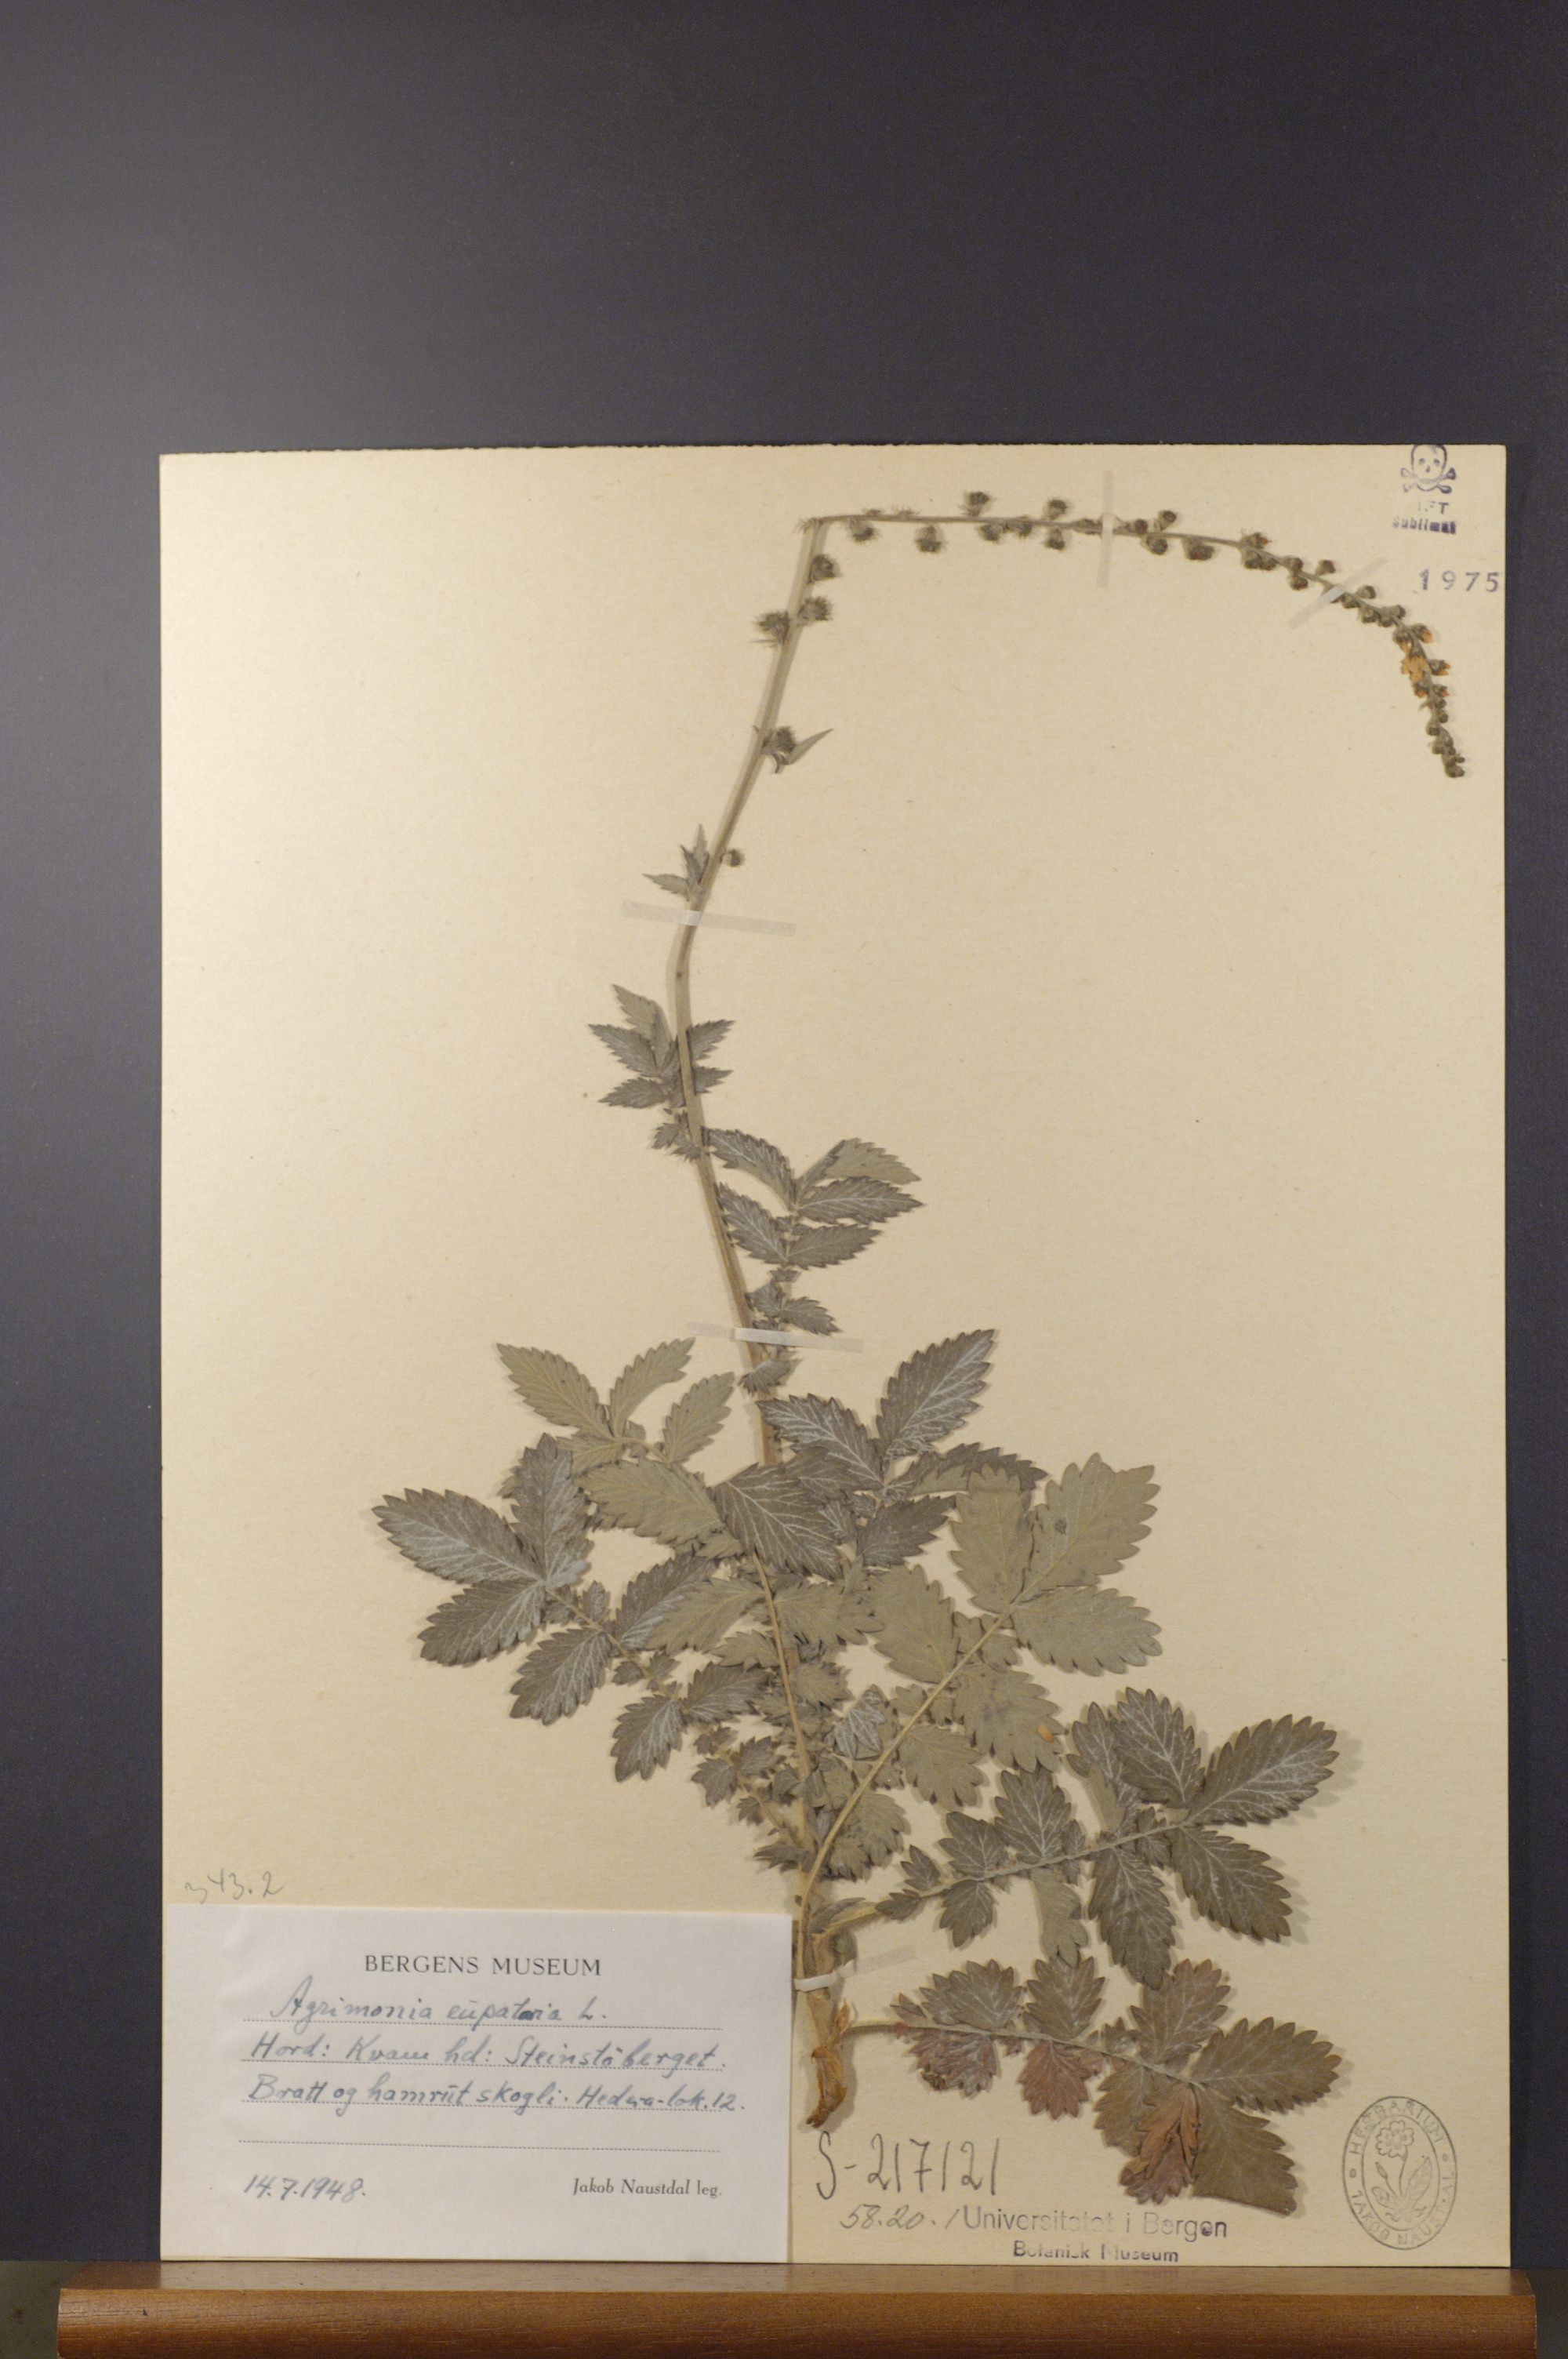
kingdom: Plantae
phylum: Tracheophyta
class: Magnoliopsida
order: Rosales
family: Rosaceae
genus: Agrimonia
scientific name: Agrimonia eupatoria
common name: Agrimony
